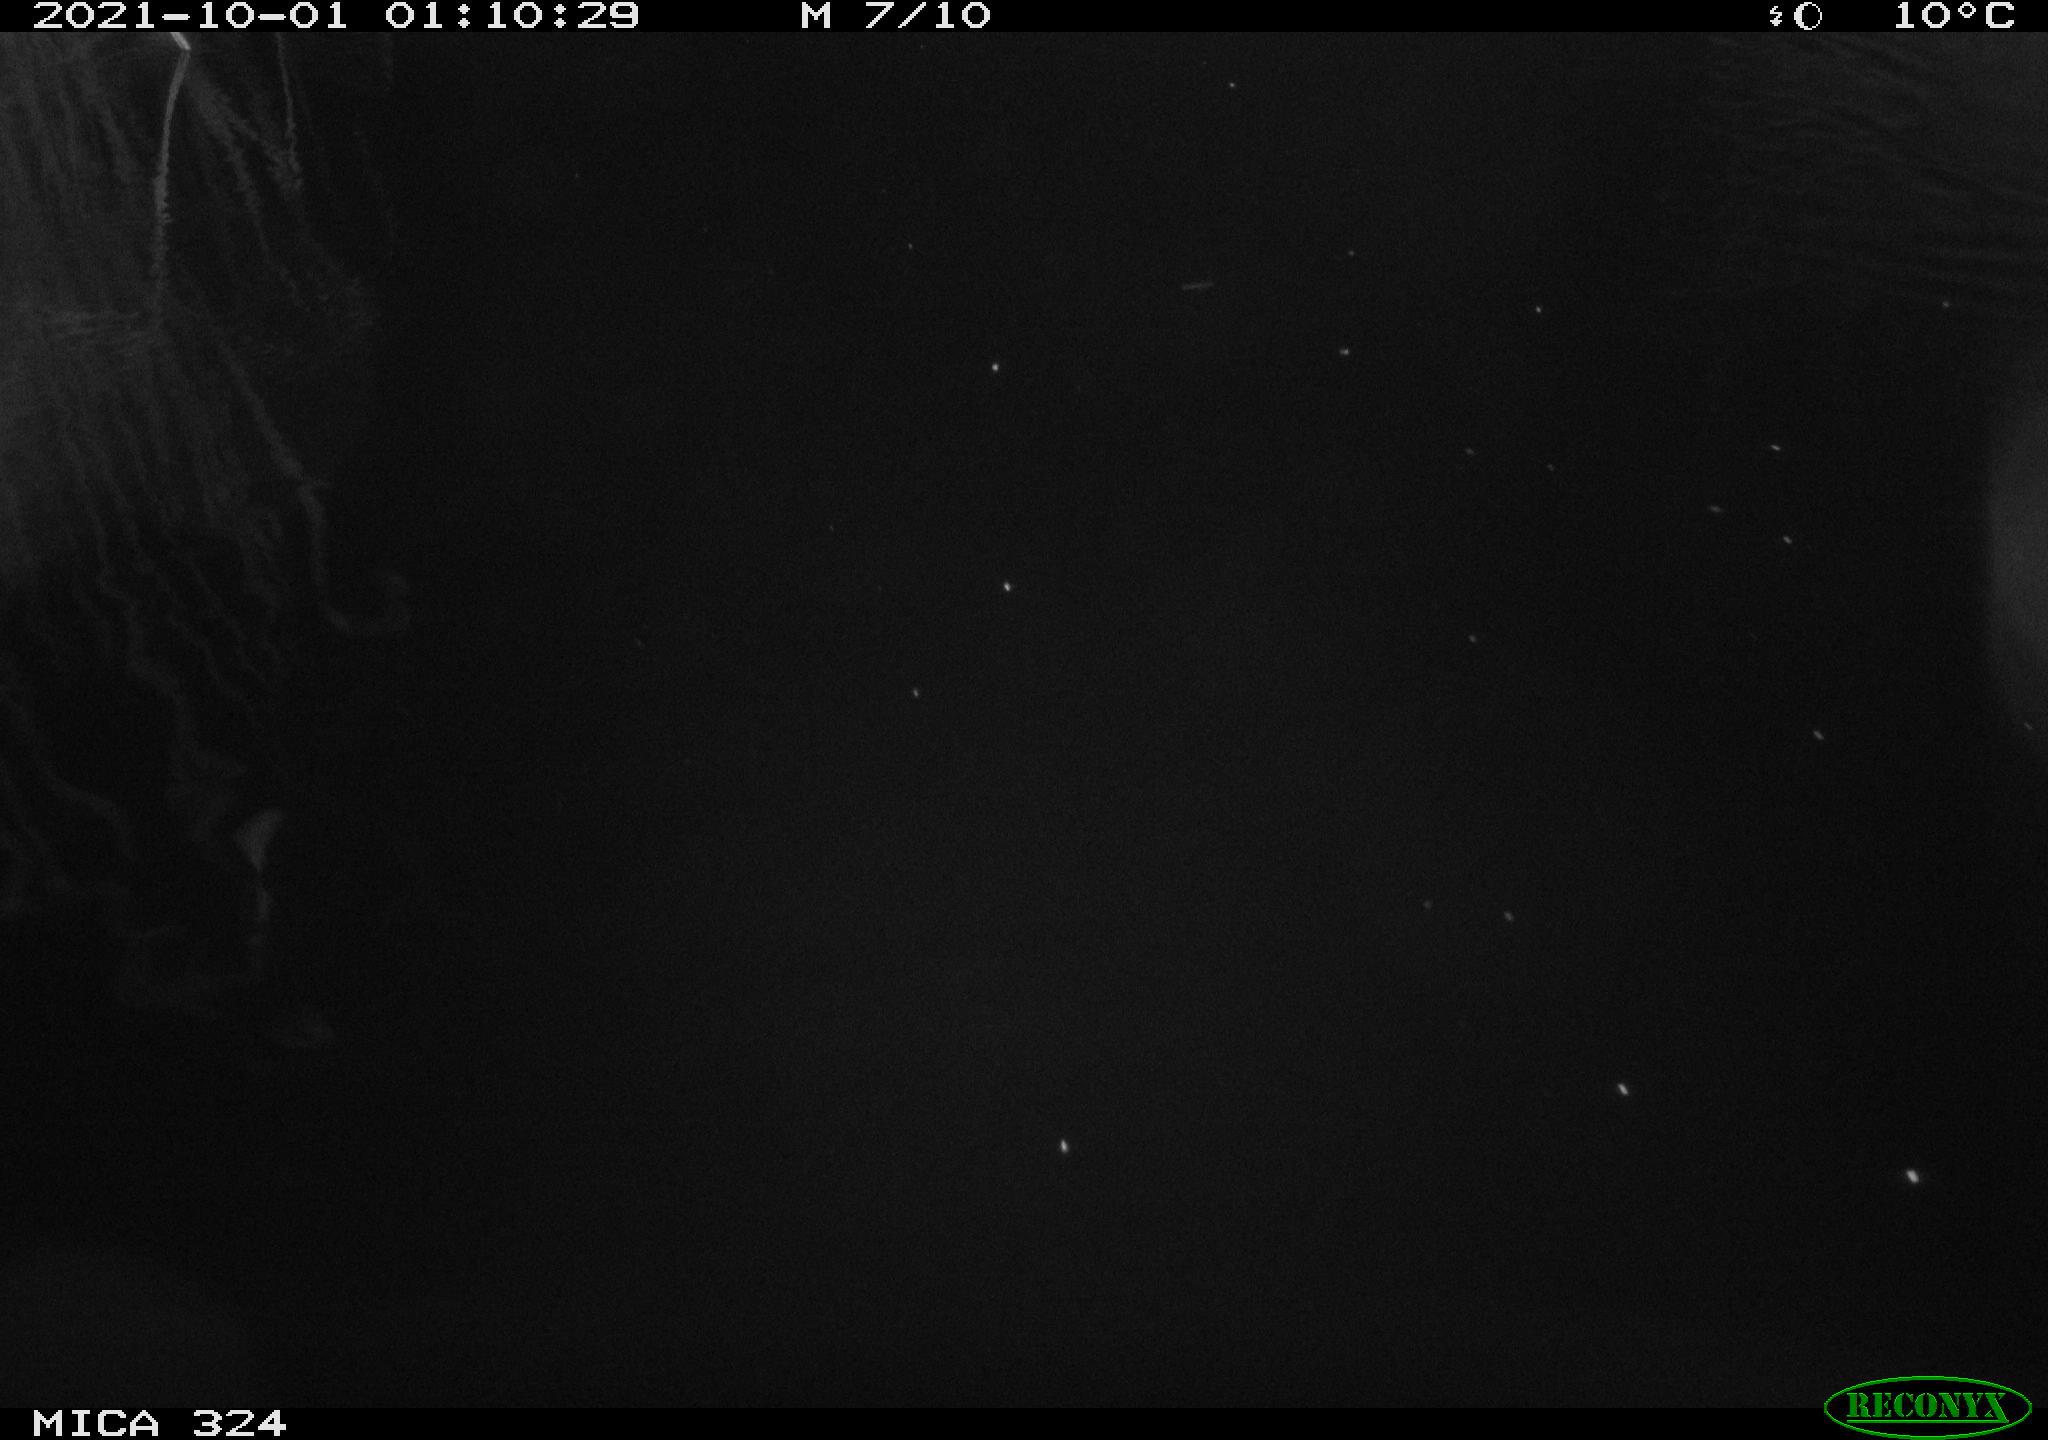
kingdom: Animalia
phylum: Chordata
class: Mammalia
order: Rodentia
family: Cricetidae
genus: Ondatra
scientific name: Ondatra zibethicus
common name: Muskrat
